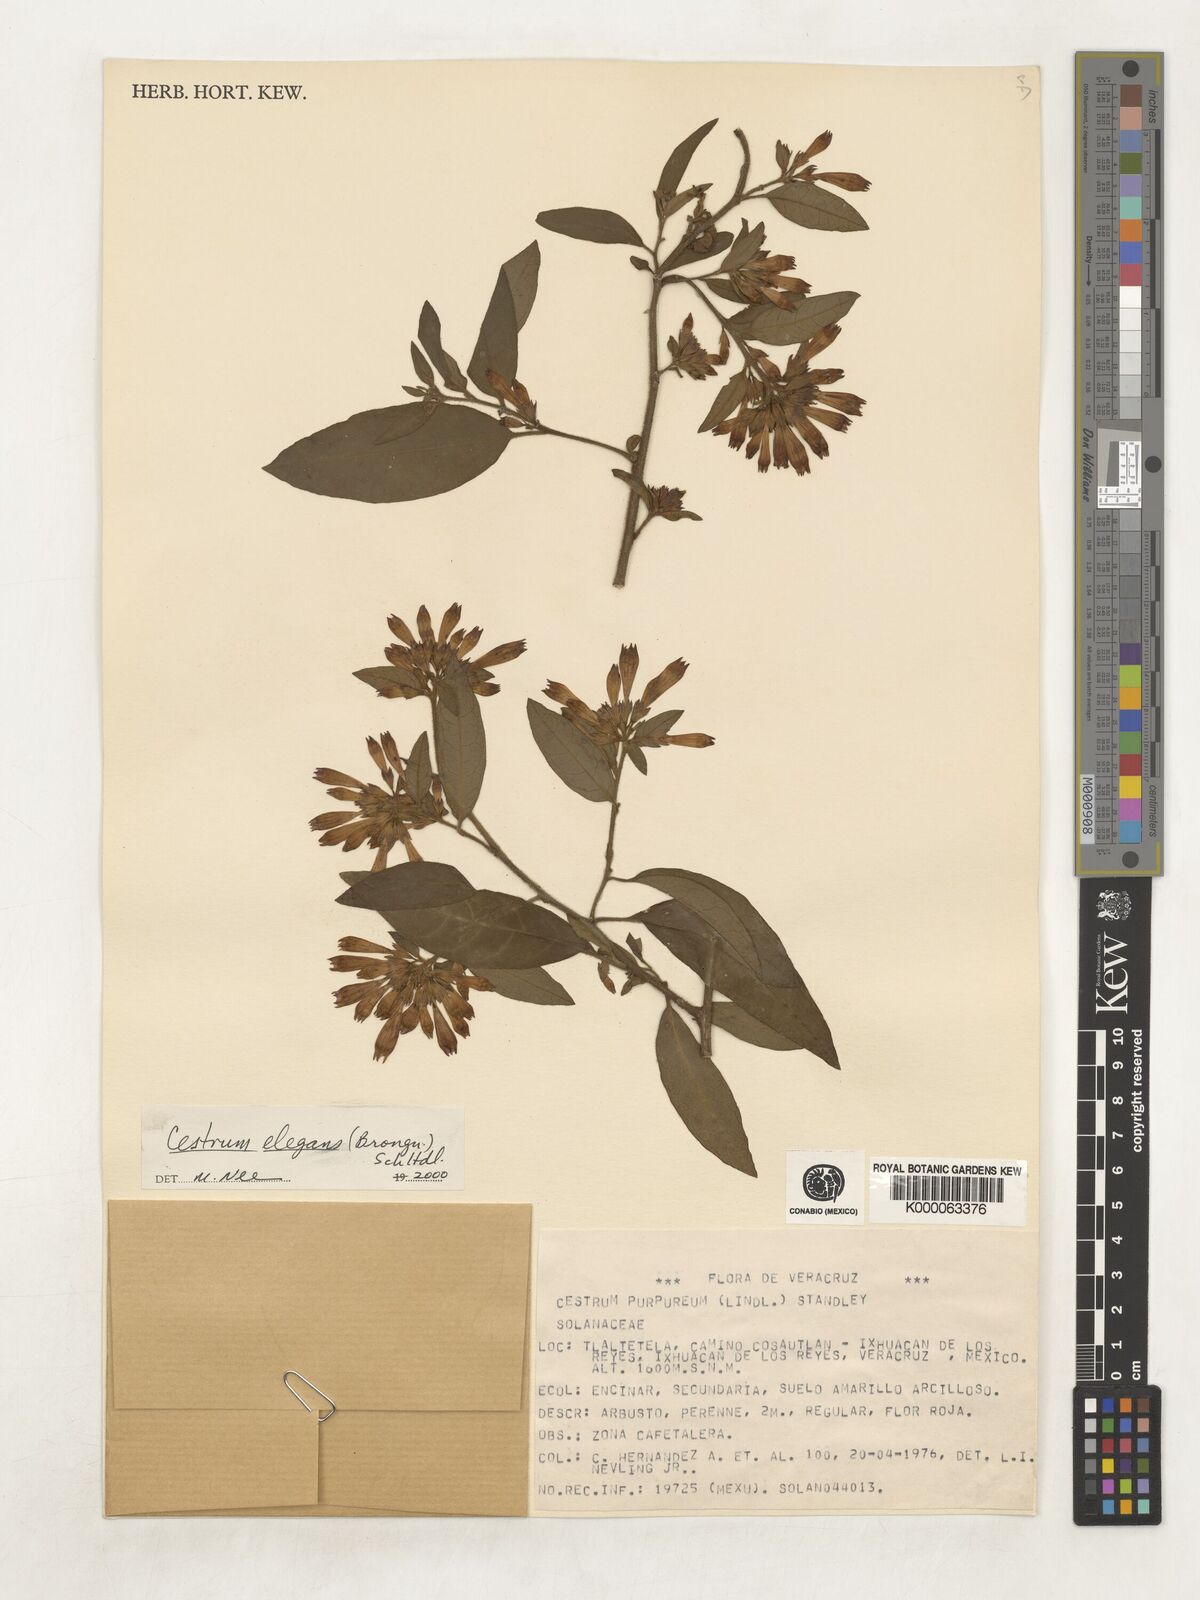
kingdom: Plantae
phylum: Tracheophyta
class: Magnoliopsida
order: Solanales
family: Solanaceae
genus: Cestrum
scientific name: Cestrum elegans
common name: Crimson cestrum
